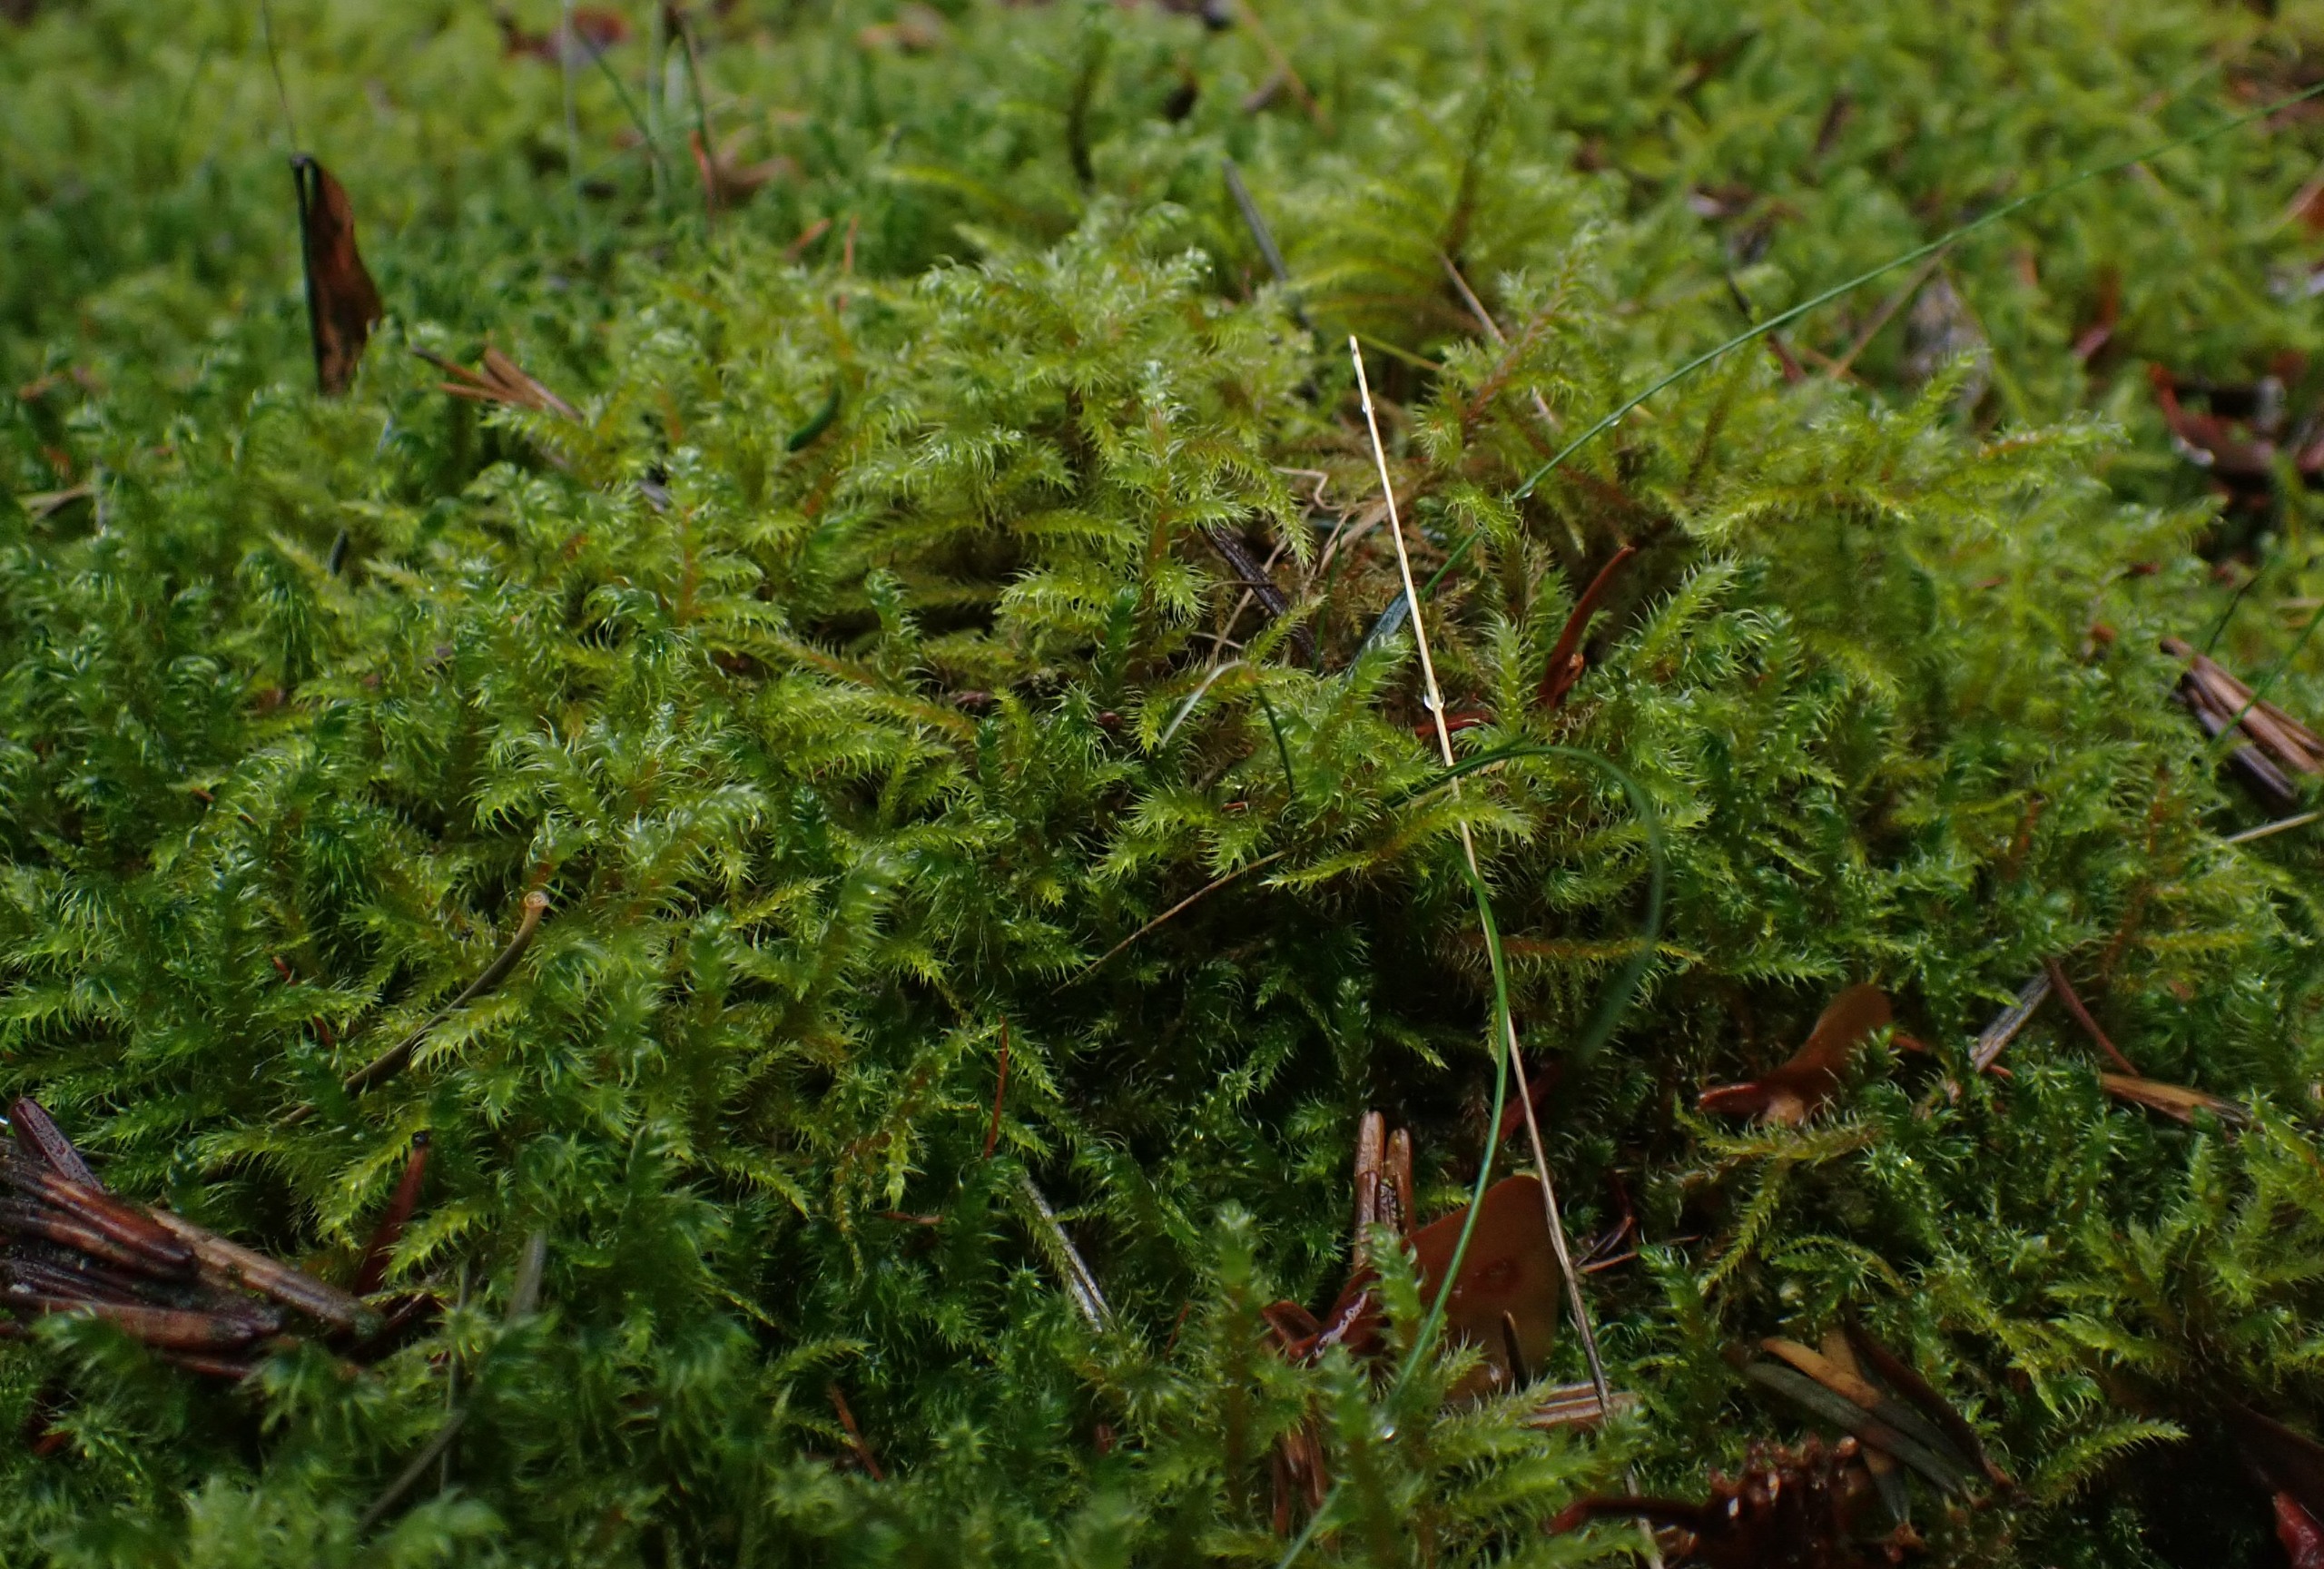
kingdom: Plantae
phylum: Bryophyta
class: Bryopsida
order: Hypnales
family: Hylocomiaceae
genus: Rhytidiadelphus
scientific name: Rhytidiadelphus loreus
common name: Ulvefod-kransemos
